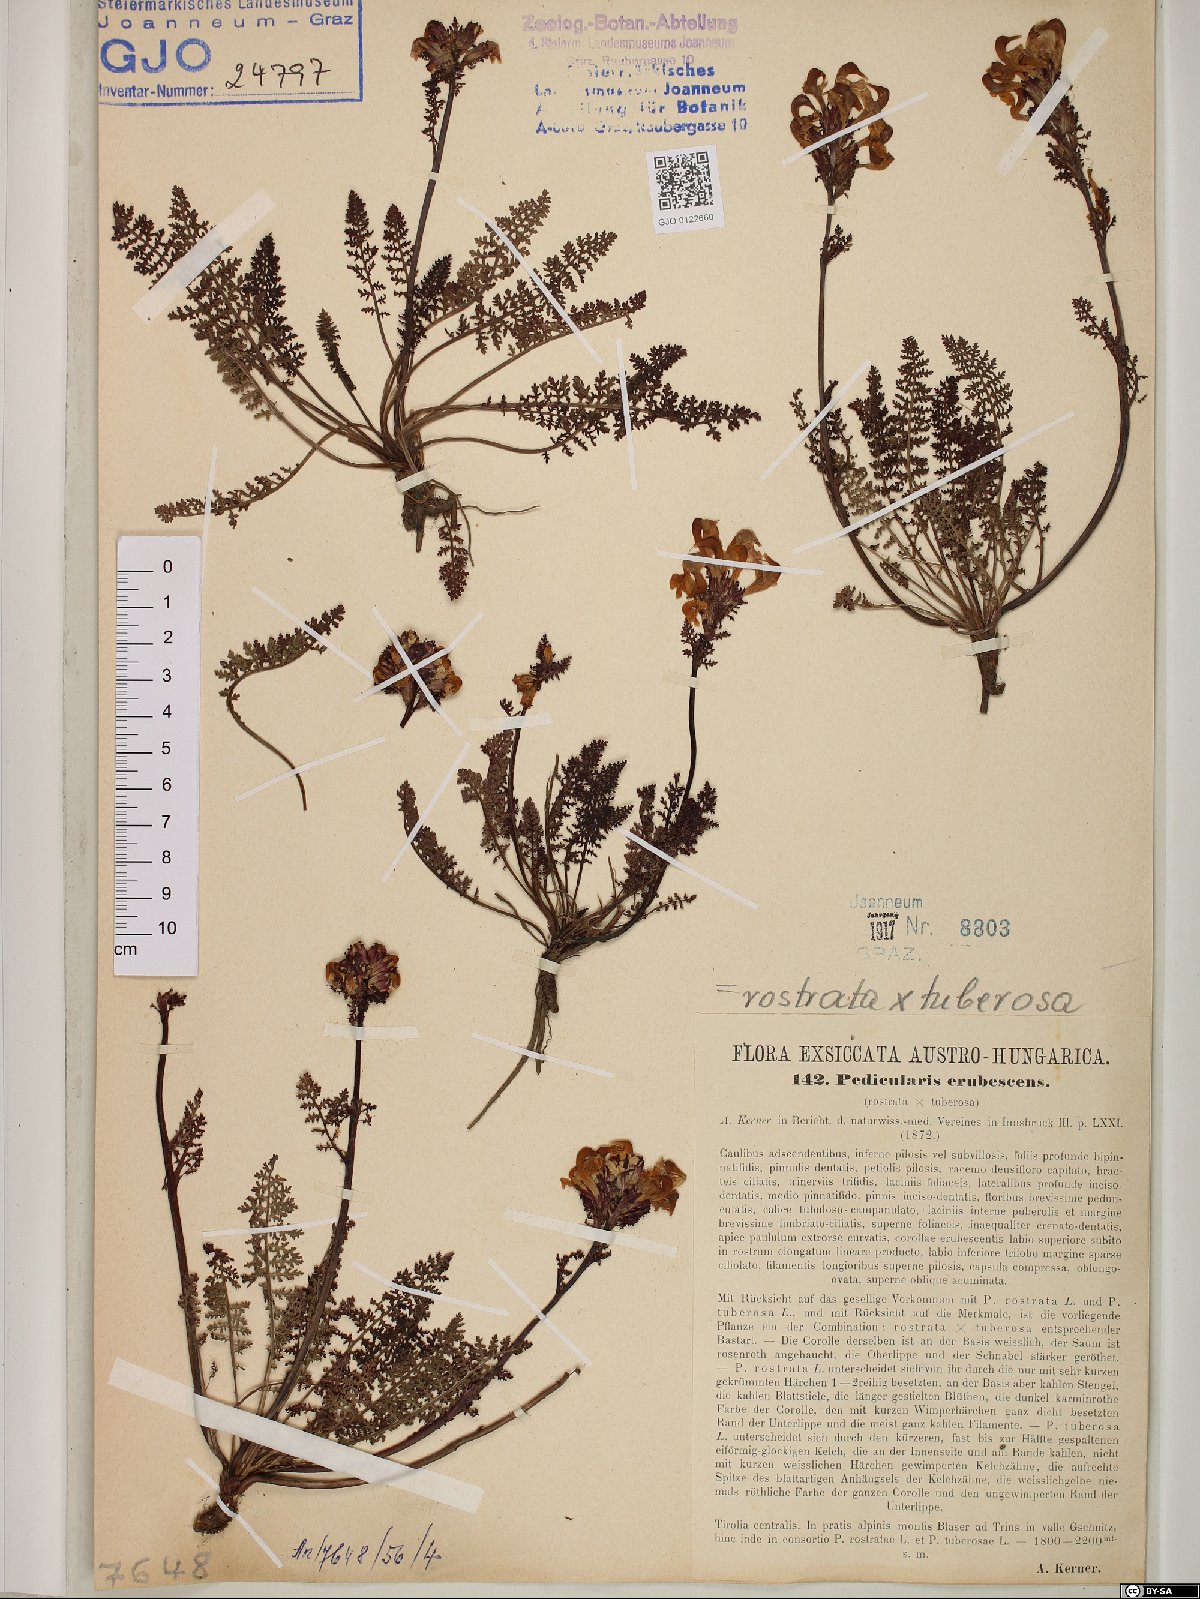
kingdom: Plantae
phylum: Tracheophyta
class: Magnoliopsida
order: Lamiales
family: Scrophulariaceae
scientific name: Scrophulariaceae
